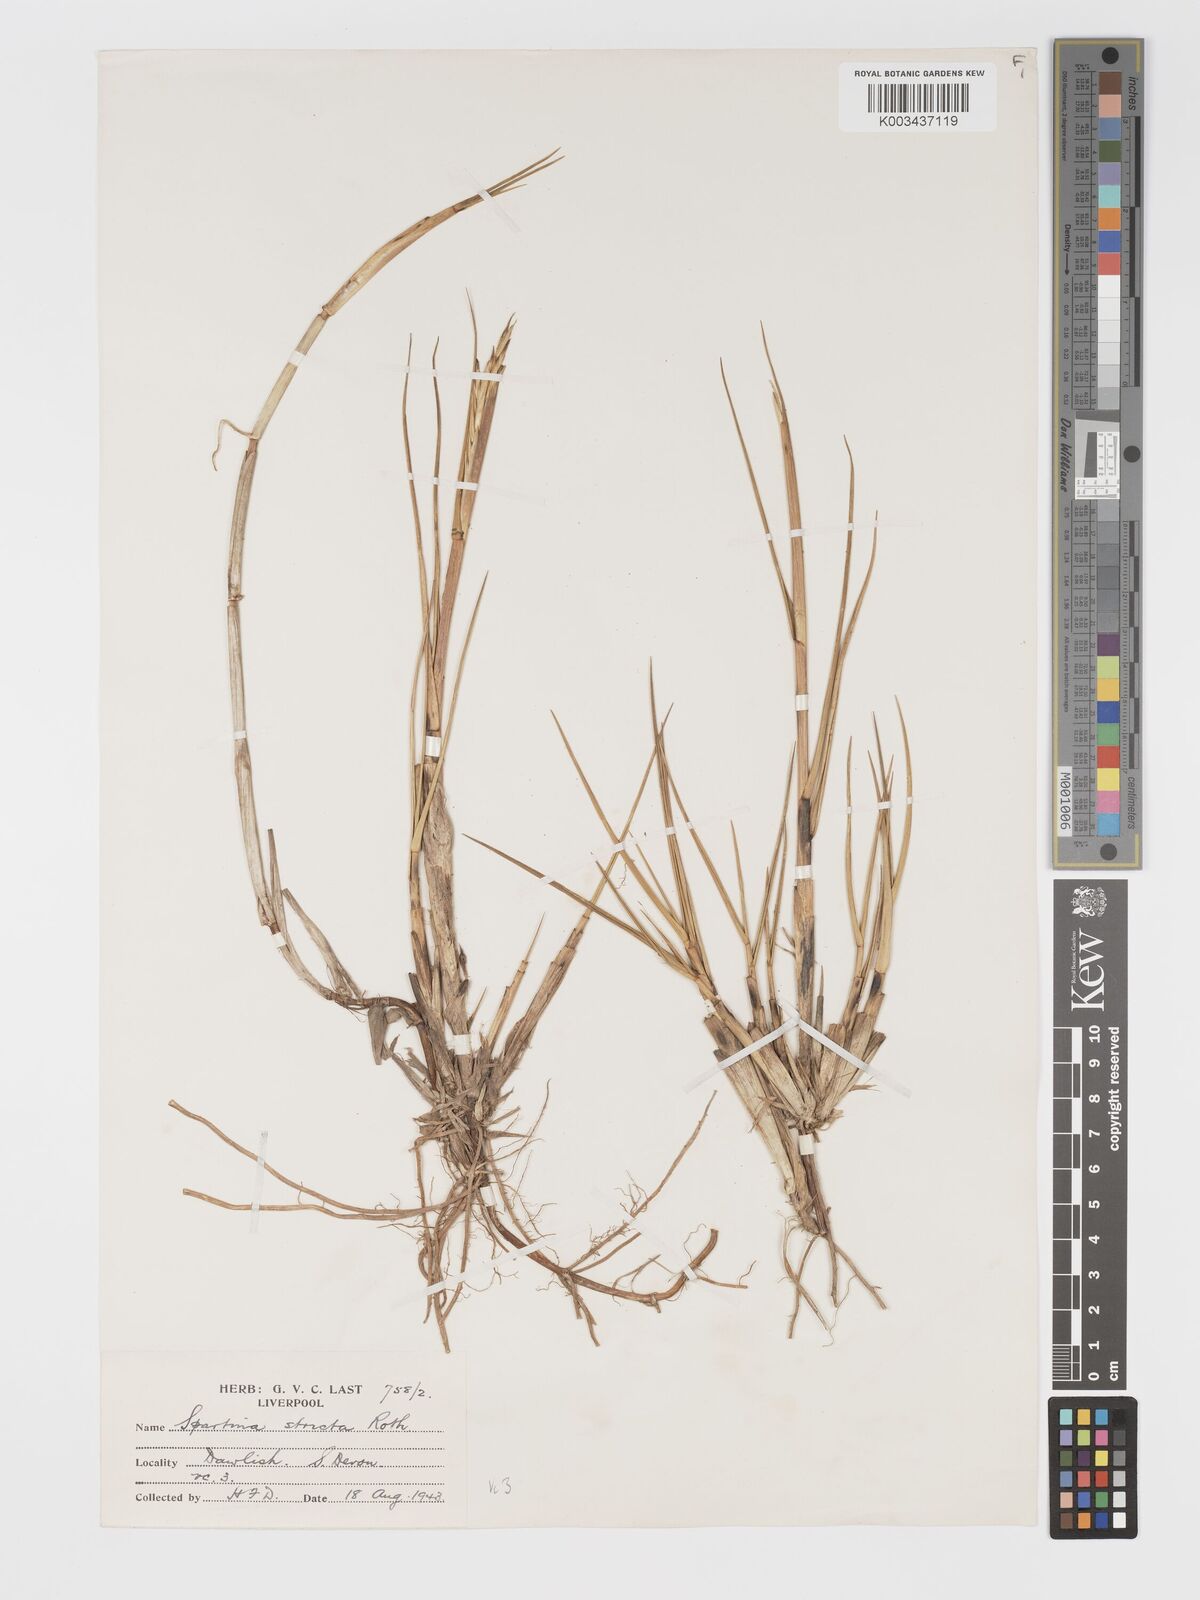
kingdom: Plantae
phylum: Tracheophyta
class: Liliopsida
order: Poales
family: Poaceae
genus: Sporobolus
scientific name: Sporobolus maritimus
